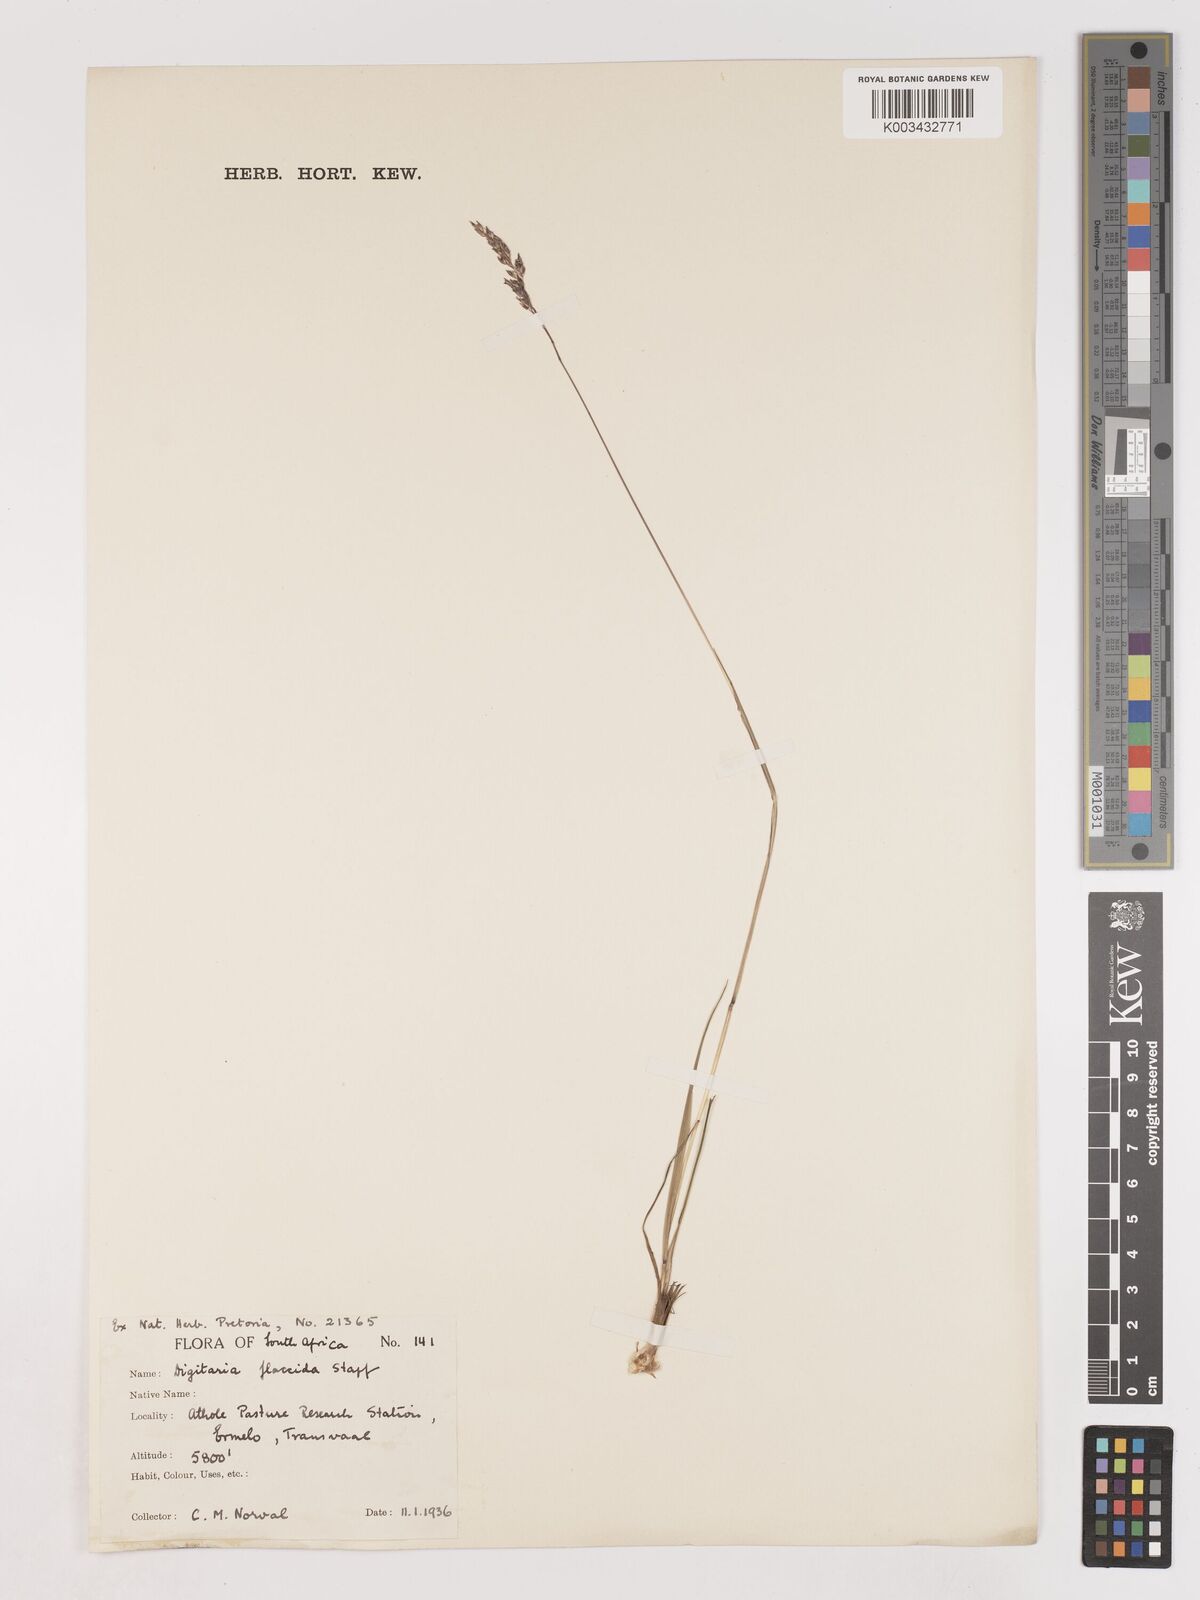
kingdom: Plantae
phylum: Tracheophyta
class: Liliopsida
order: Poales
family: Poaceae
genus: Digitaria
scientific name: Digitaria flaccida
